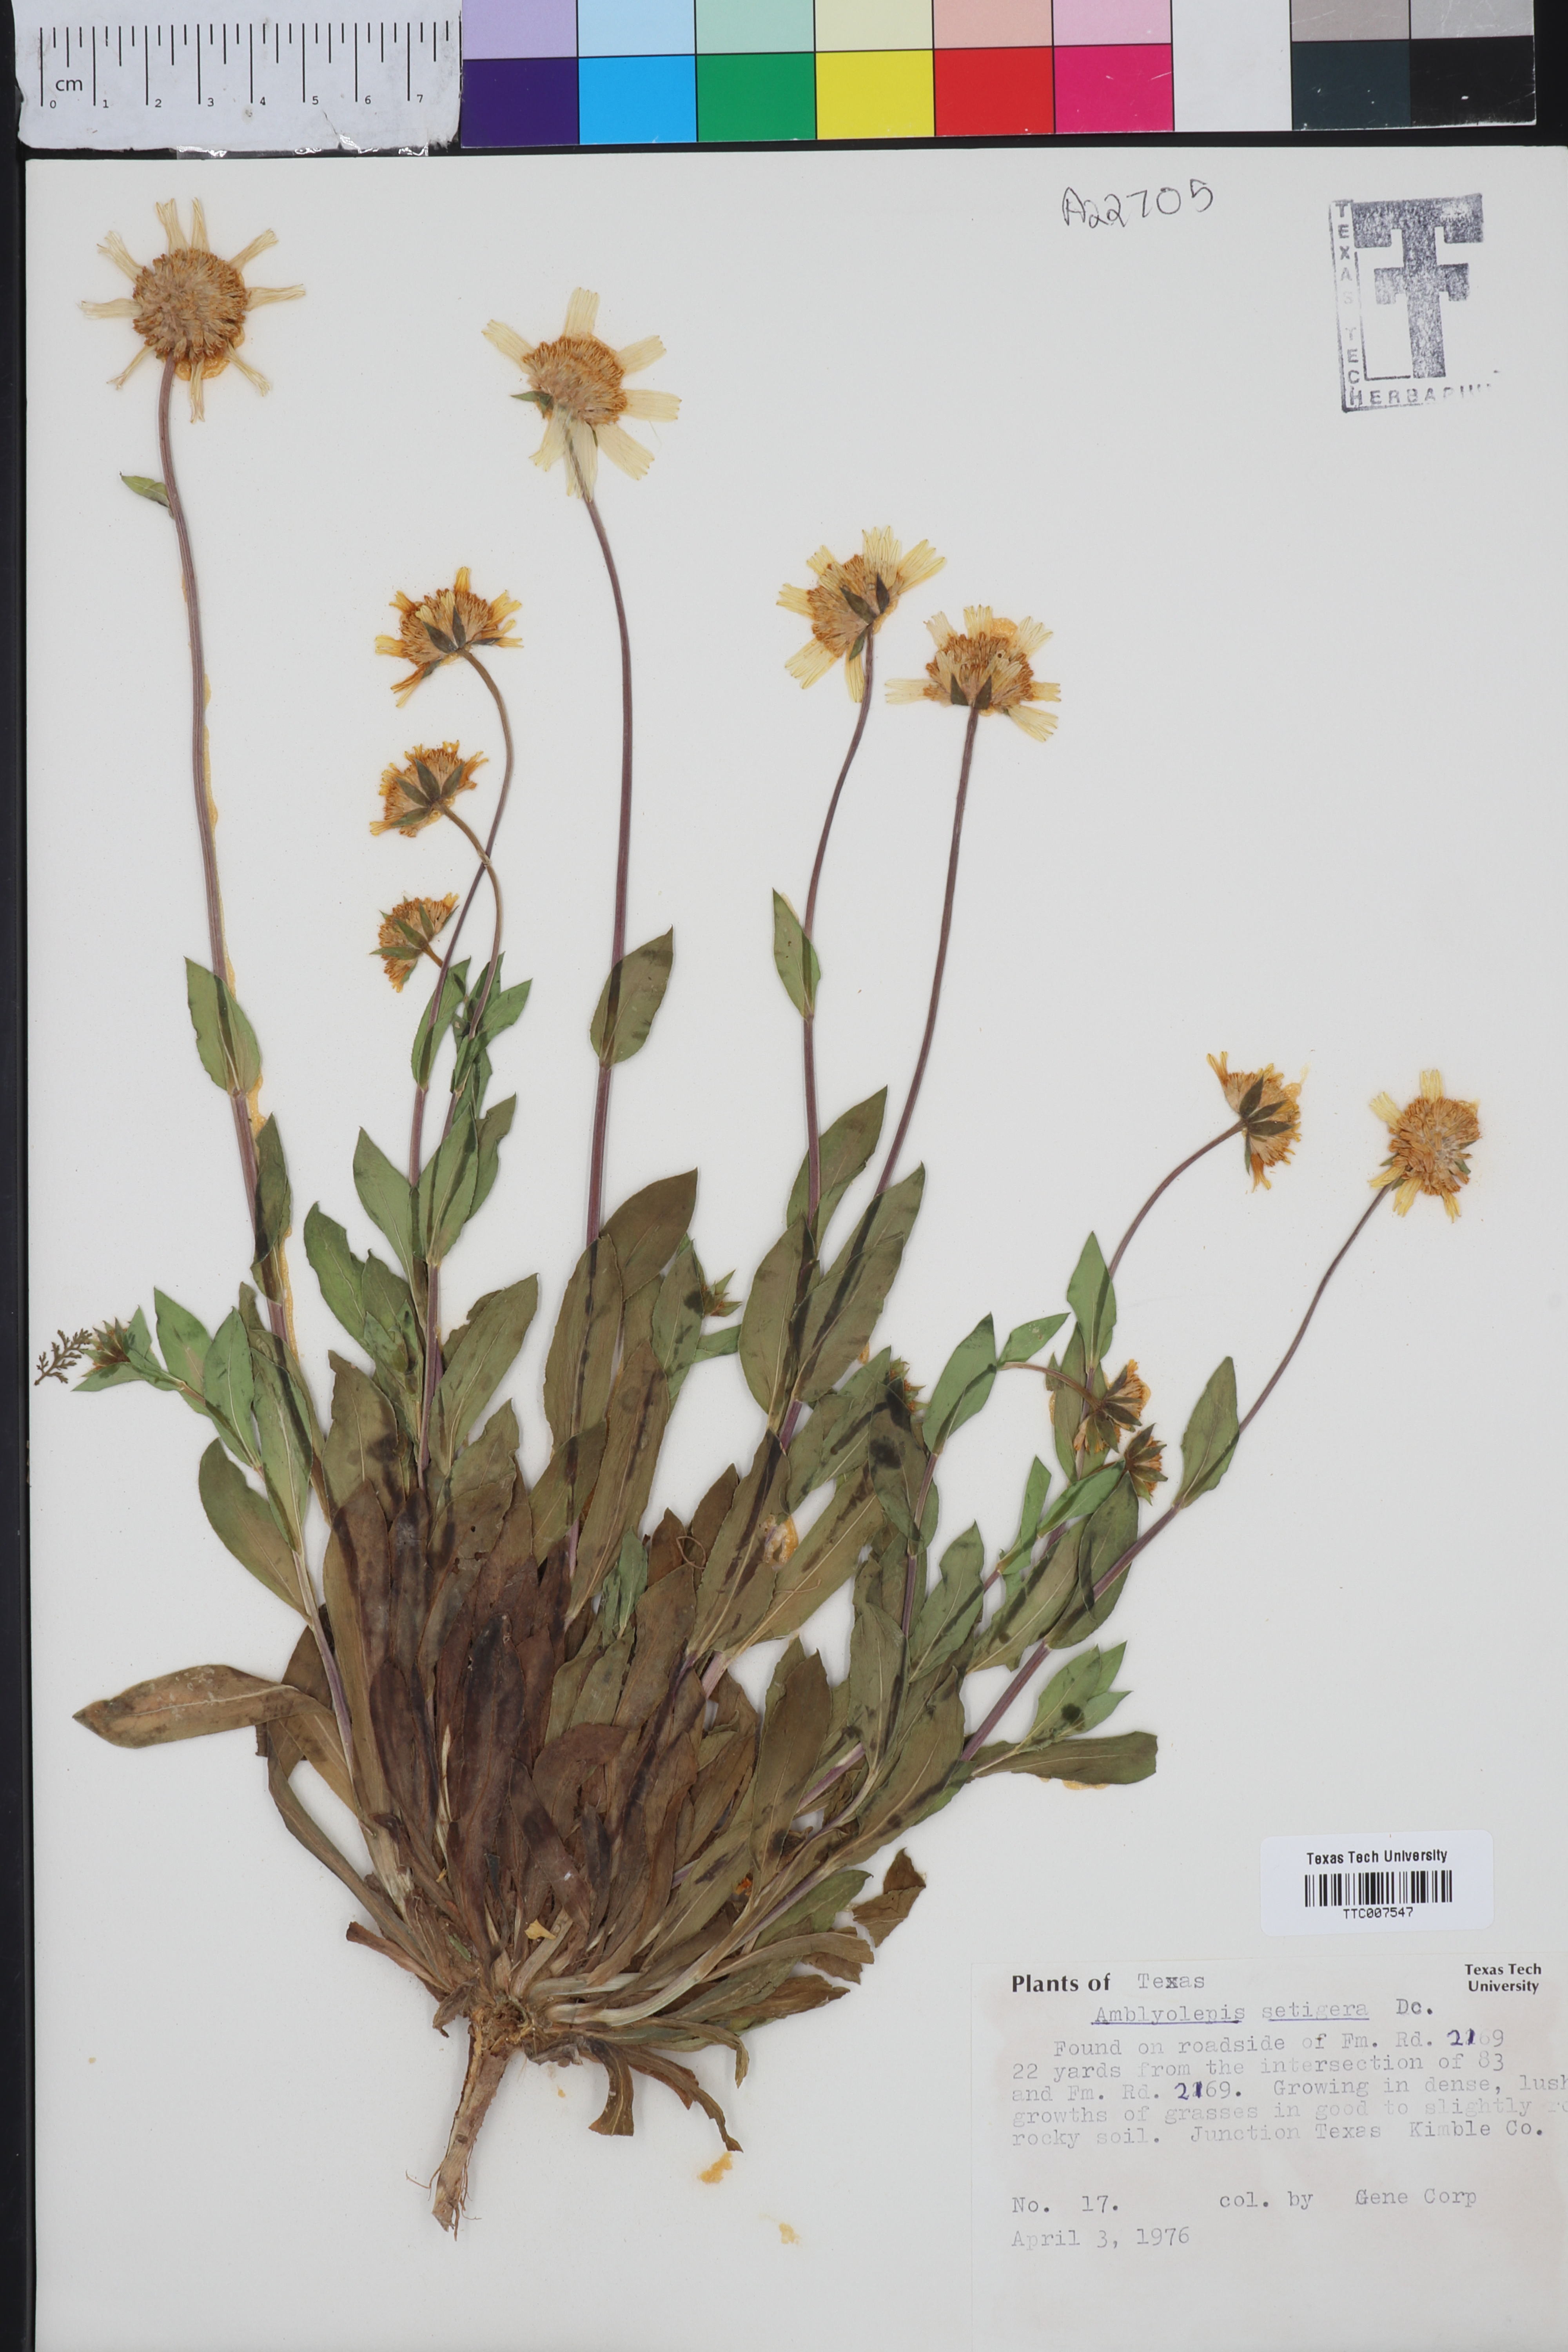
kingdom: Plantae
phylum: Tracheophyta
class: Magnoliopsida
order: Asterales
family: Asteraceae
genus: Amblyolepis
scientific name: Amblyolepis setigera
